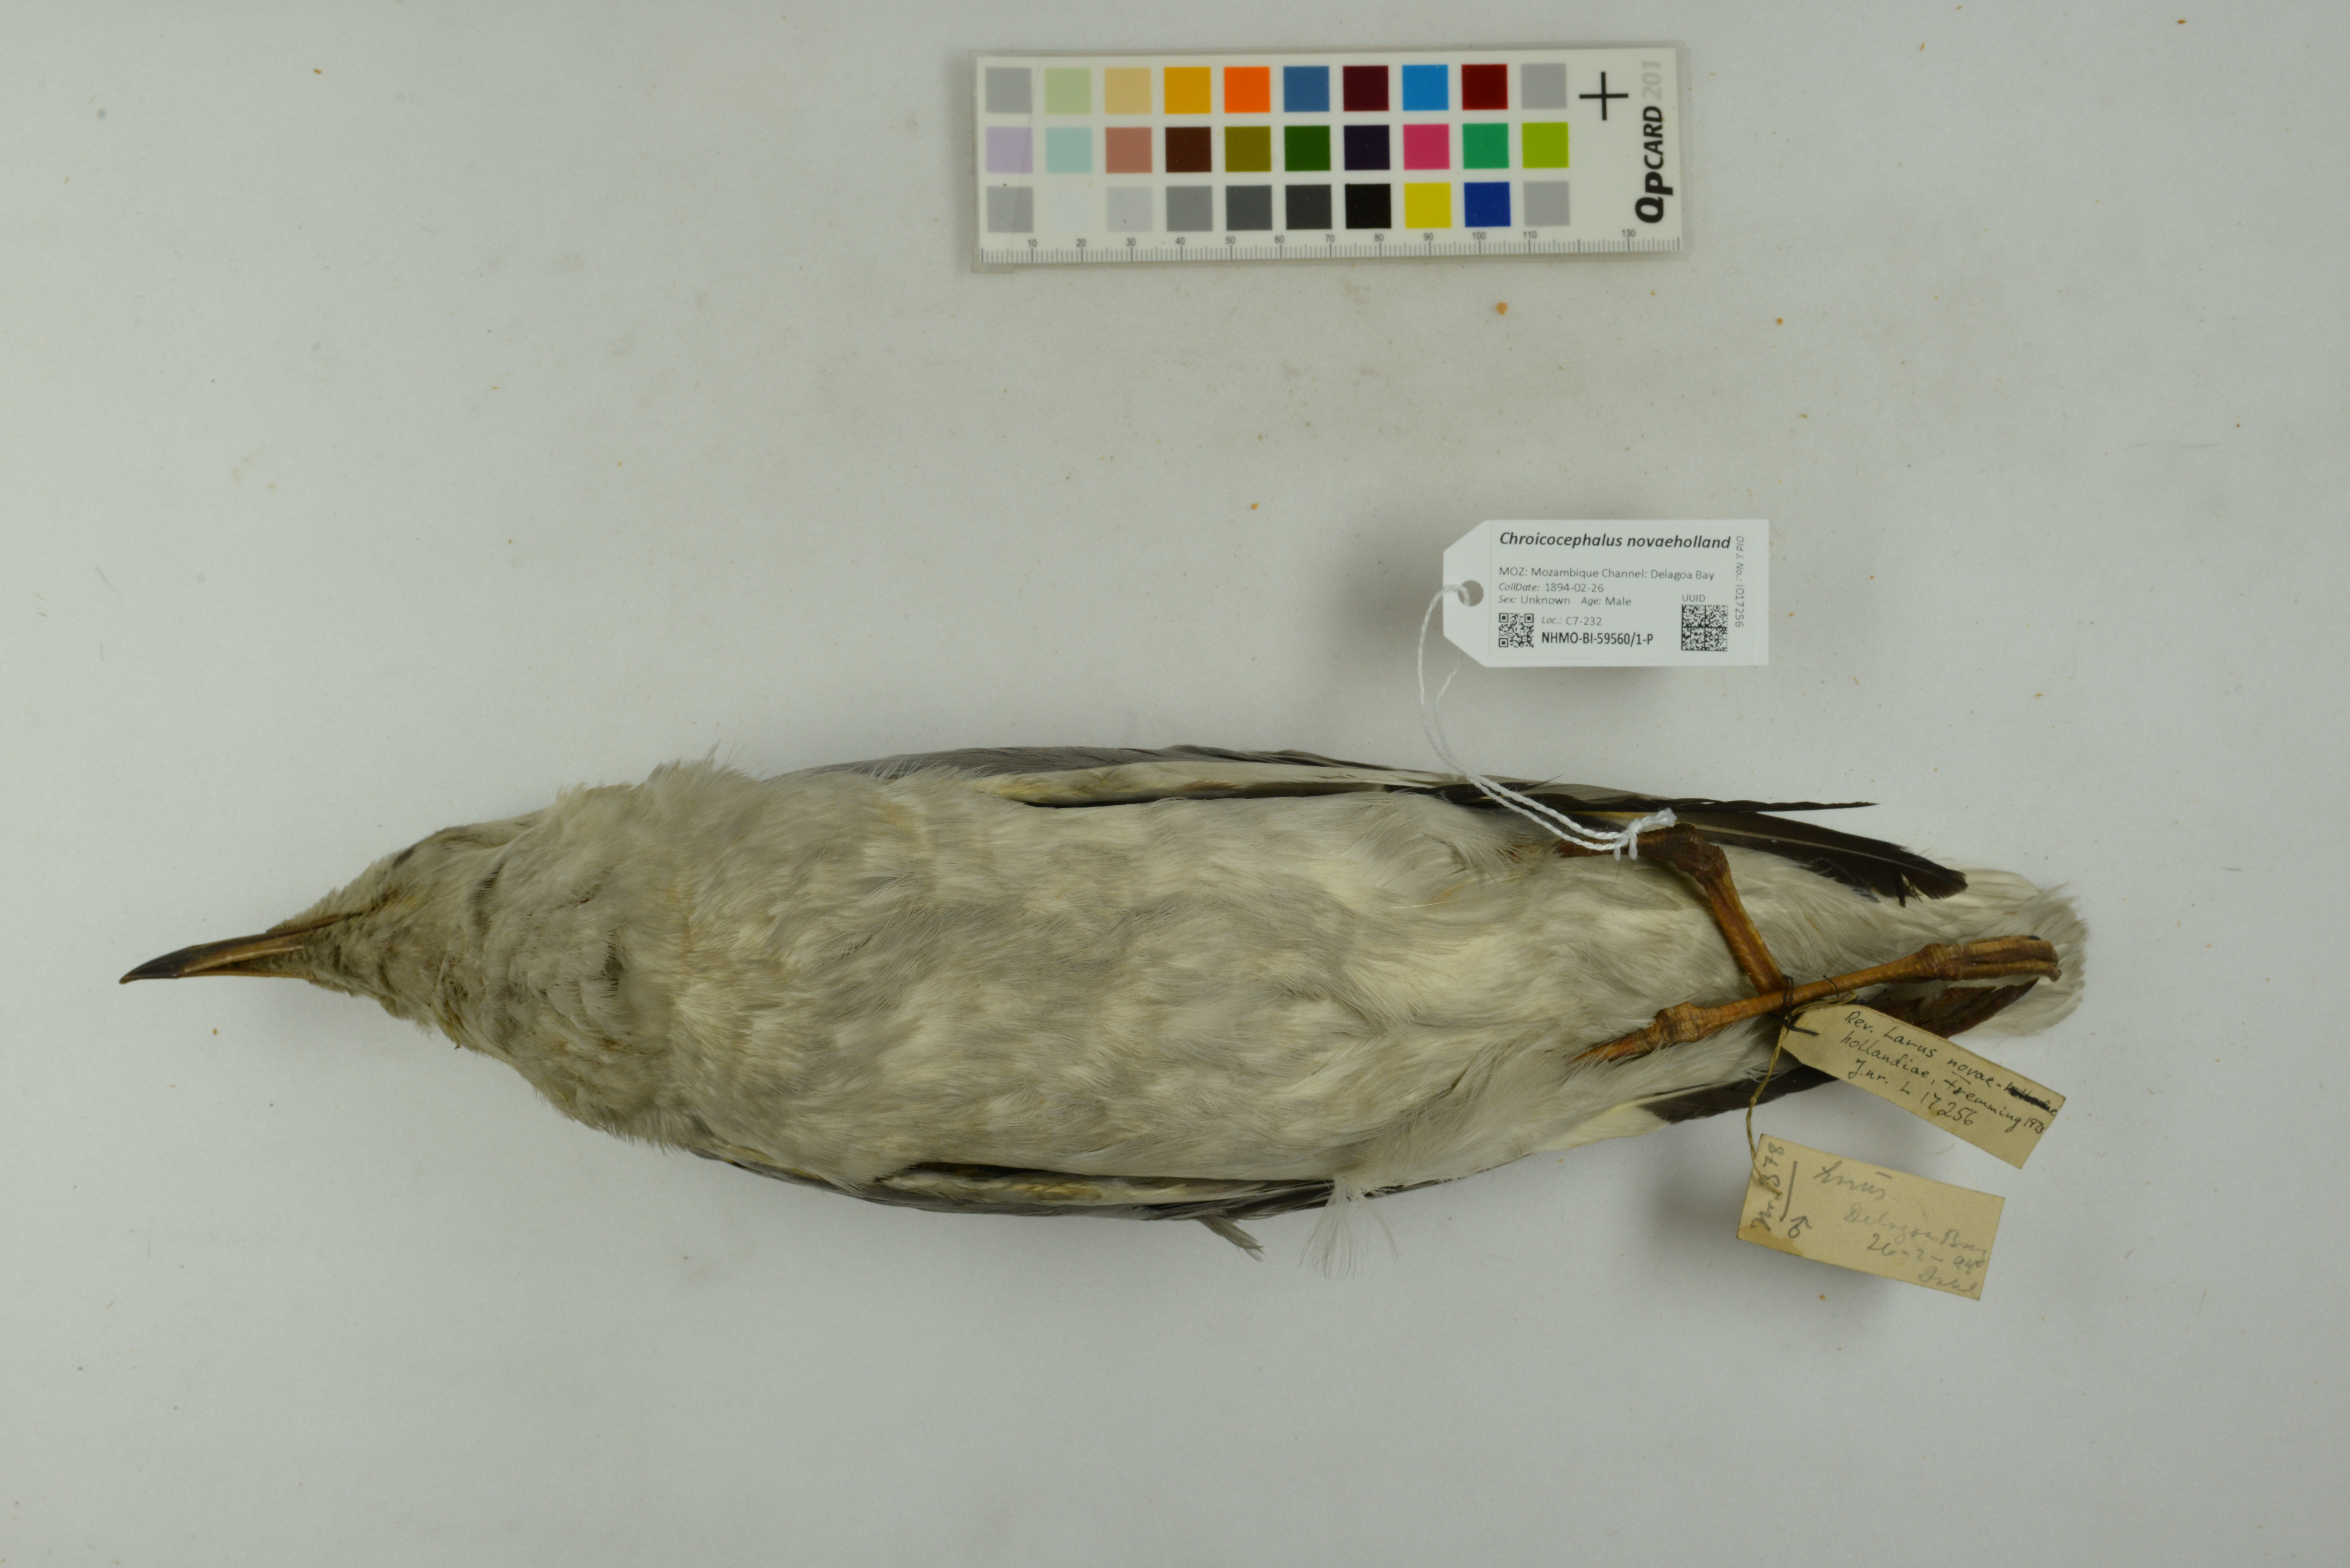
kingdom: Animalia
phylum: Chordata
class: Aves
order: Charadriiformes
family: Laridae
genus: Chroicocephalus
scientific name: Chroicocephalus novaehollandiae
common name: Silver gull
